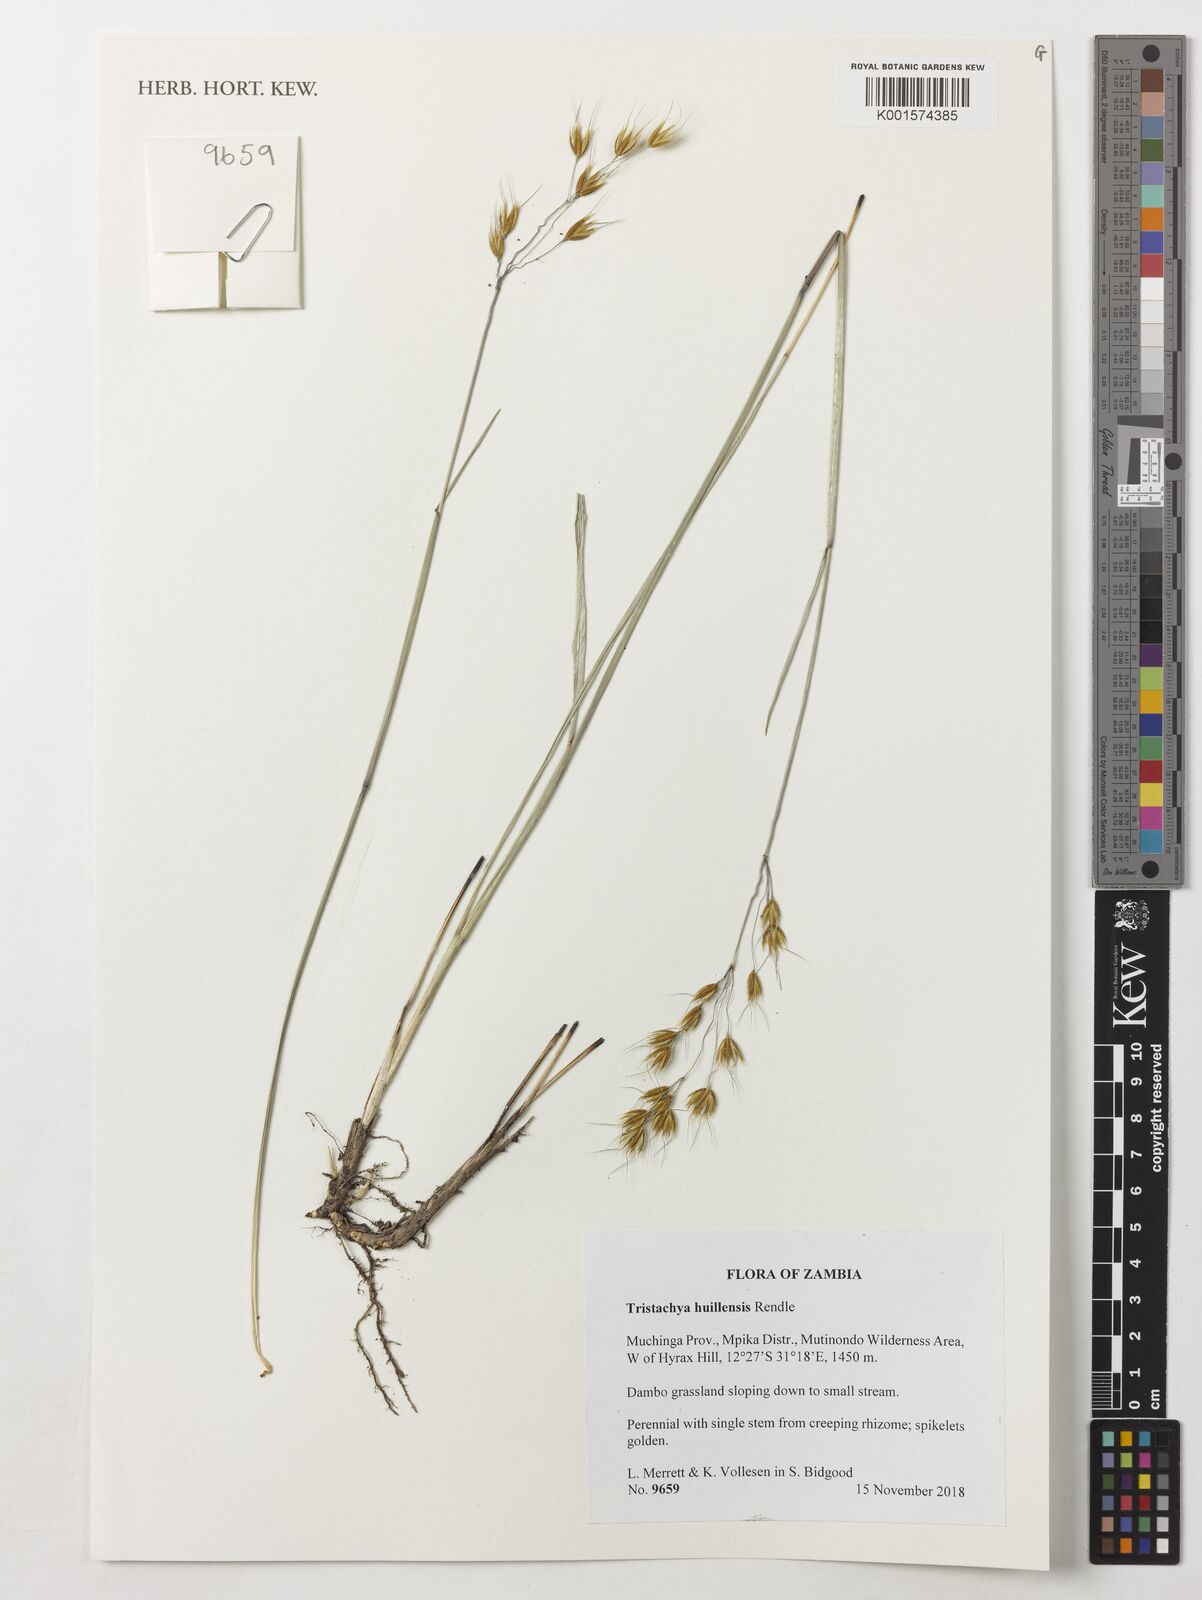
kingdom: Plantae
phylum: Tracheophyta
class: Liliopsida
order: Poales
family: Poaceae
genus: Tristachya
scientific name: Tristachya huillensis
